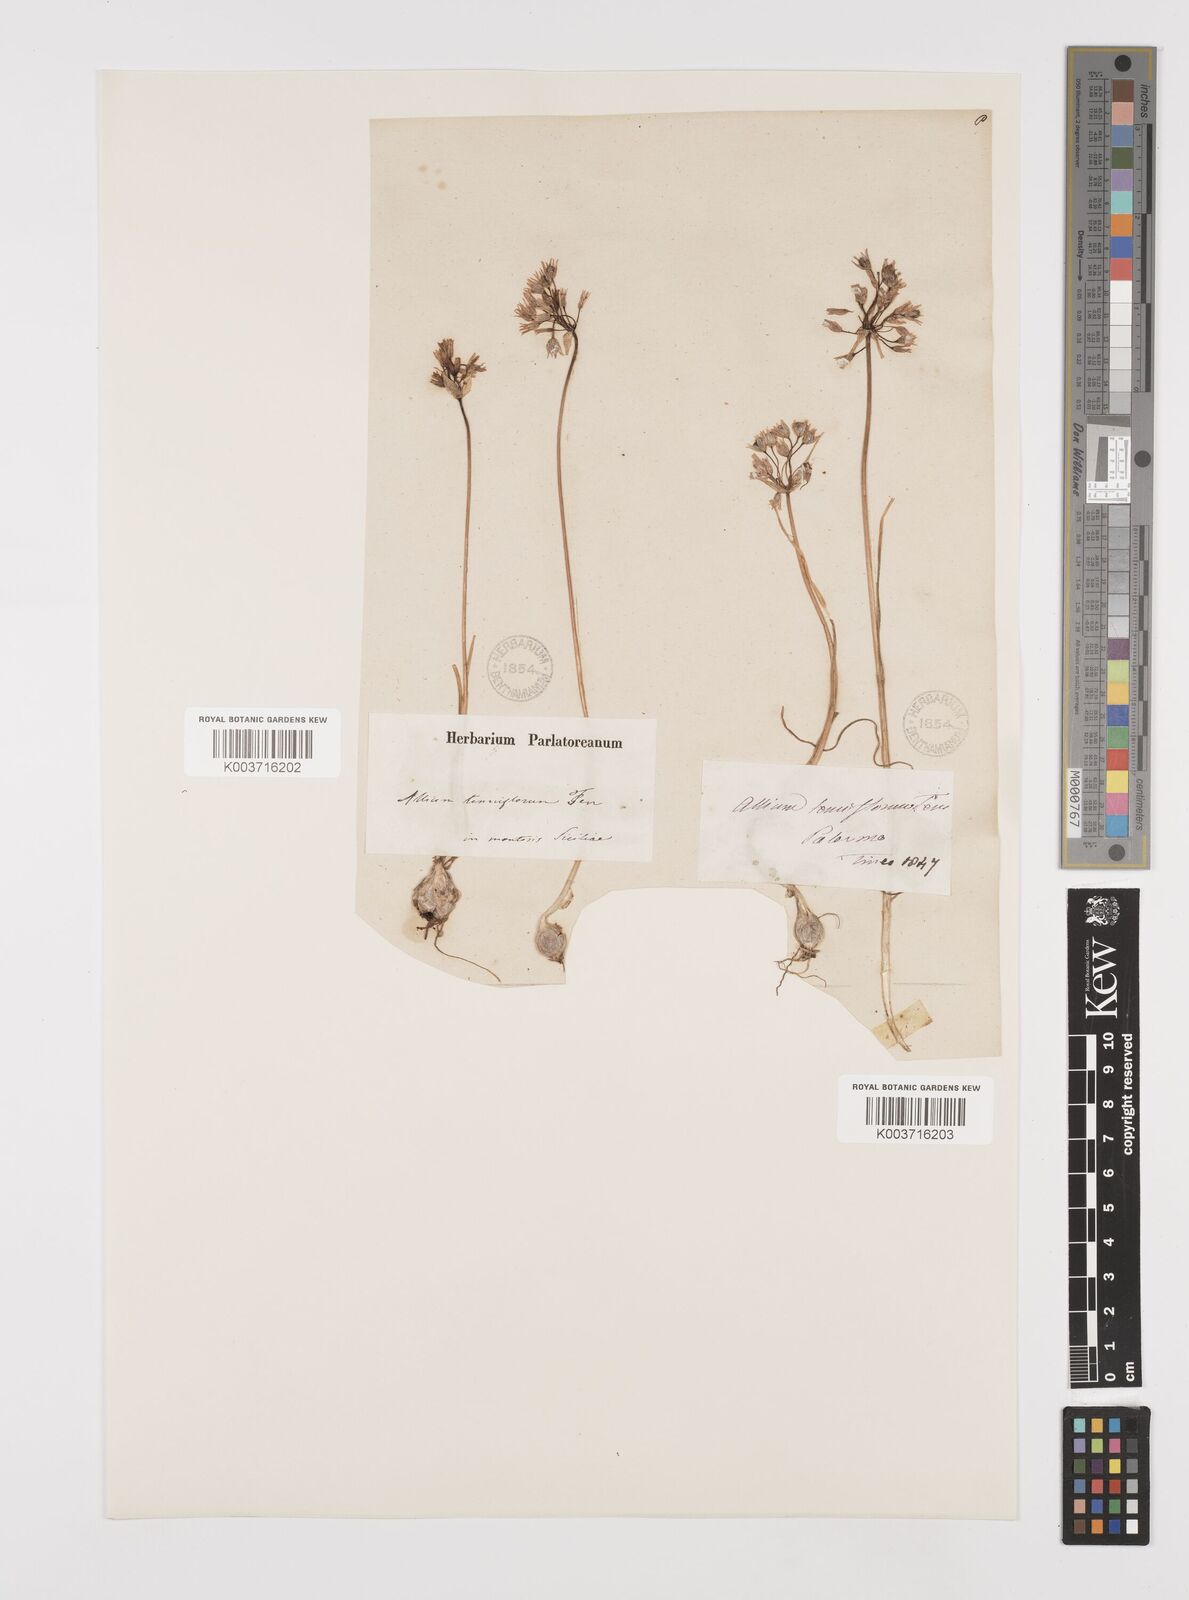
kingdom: Plantae
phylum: Tracheophyta
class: Liliopsida
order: Asparagales
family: Amaryllidaceae
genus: Allium
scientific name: Allium tenuiflorum
